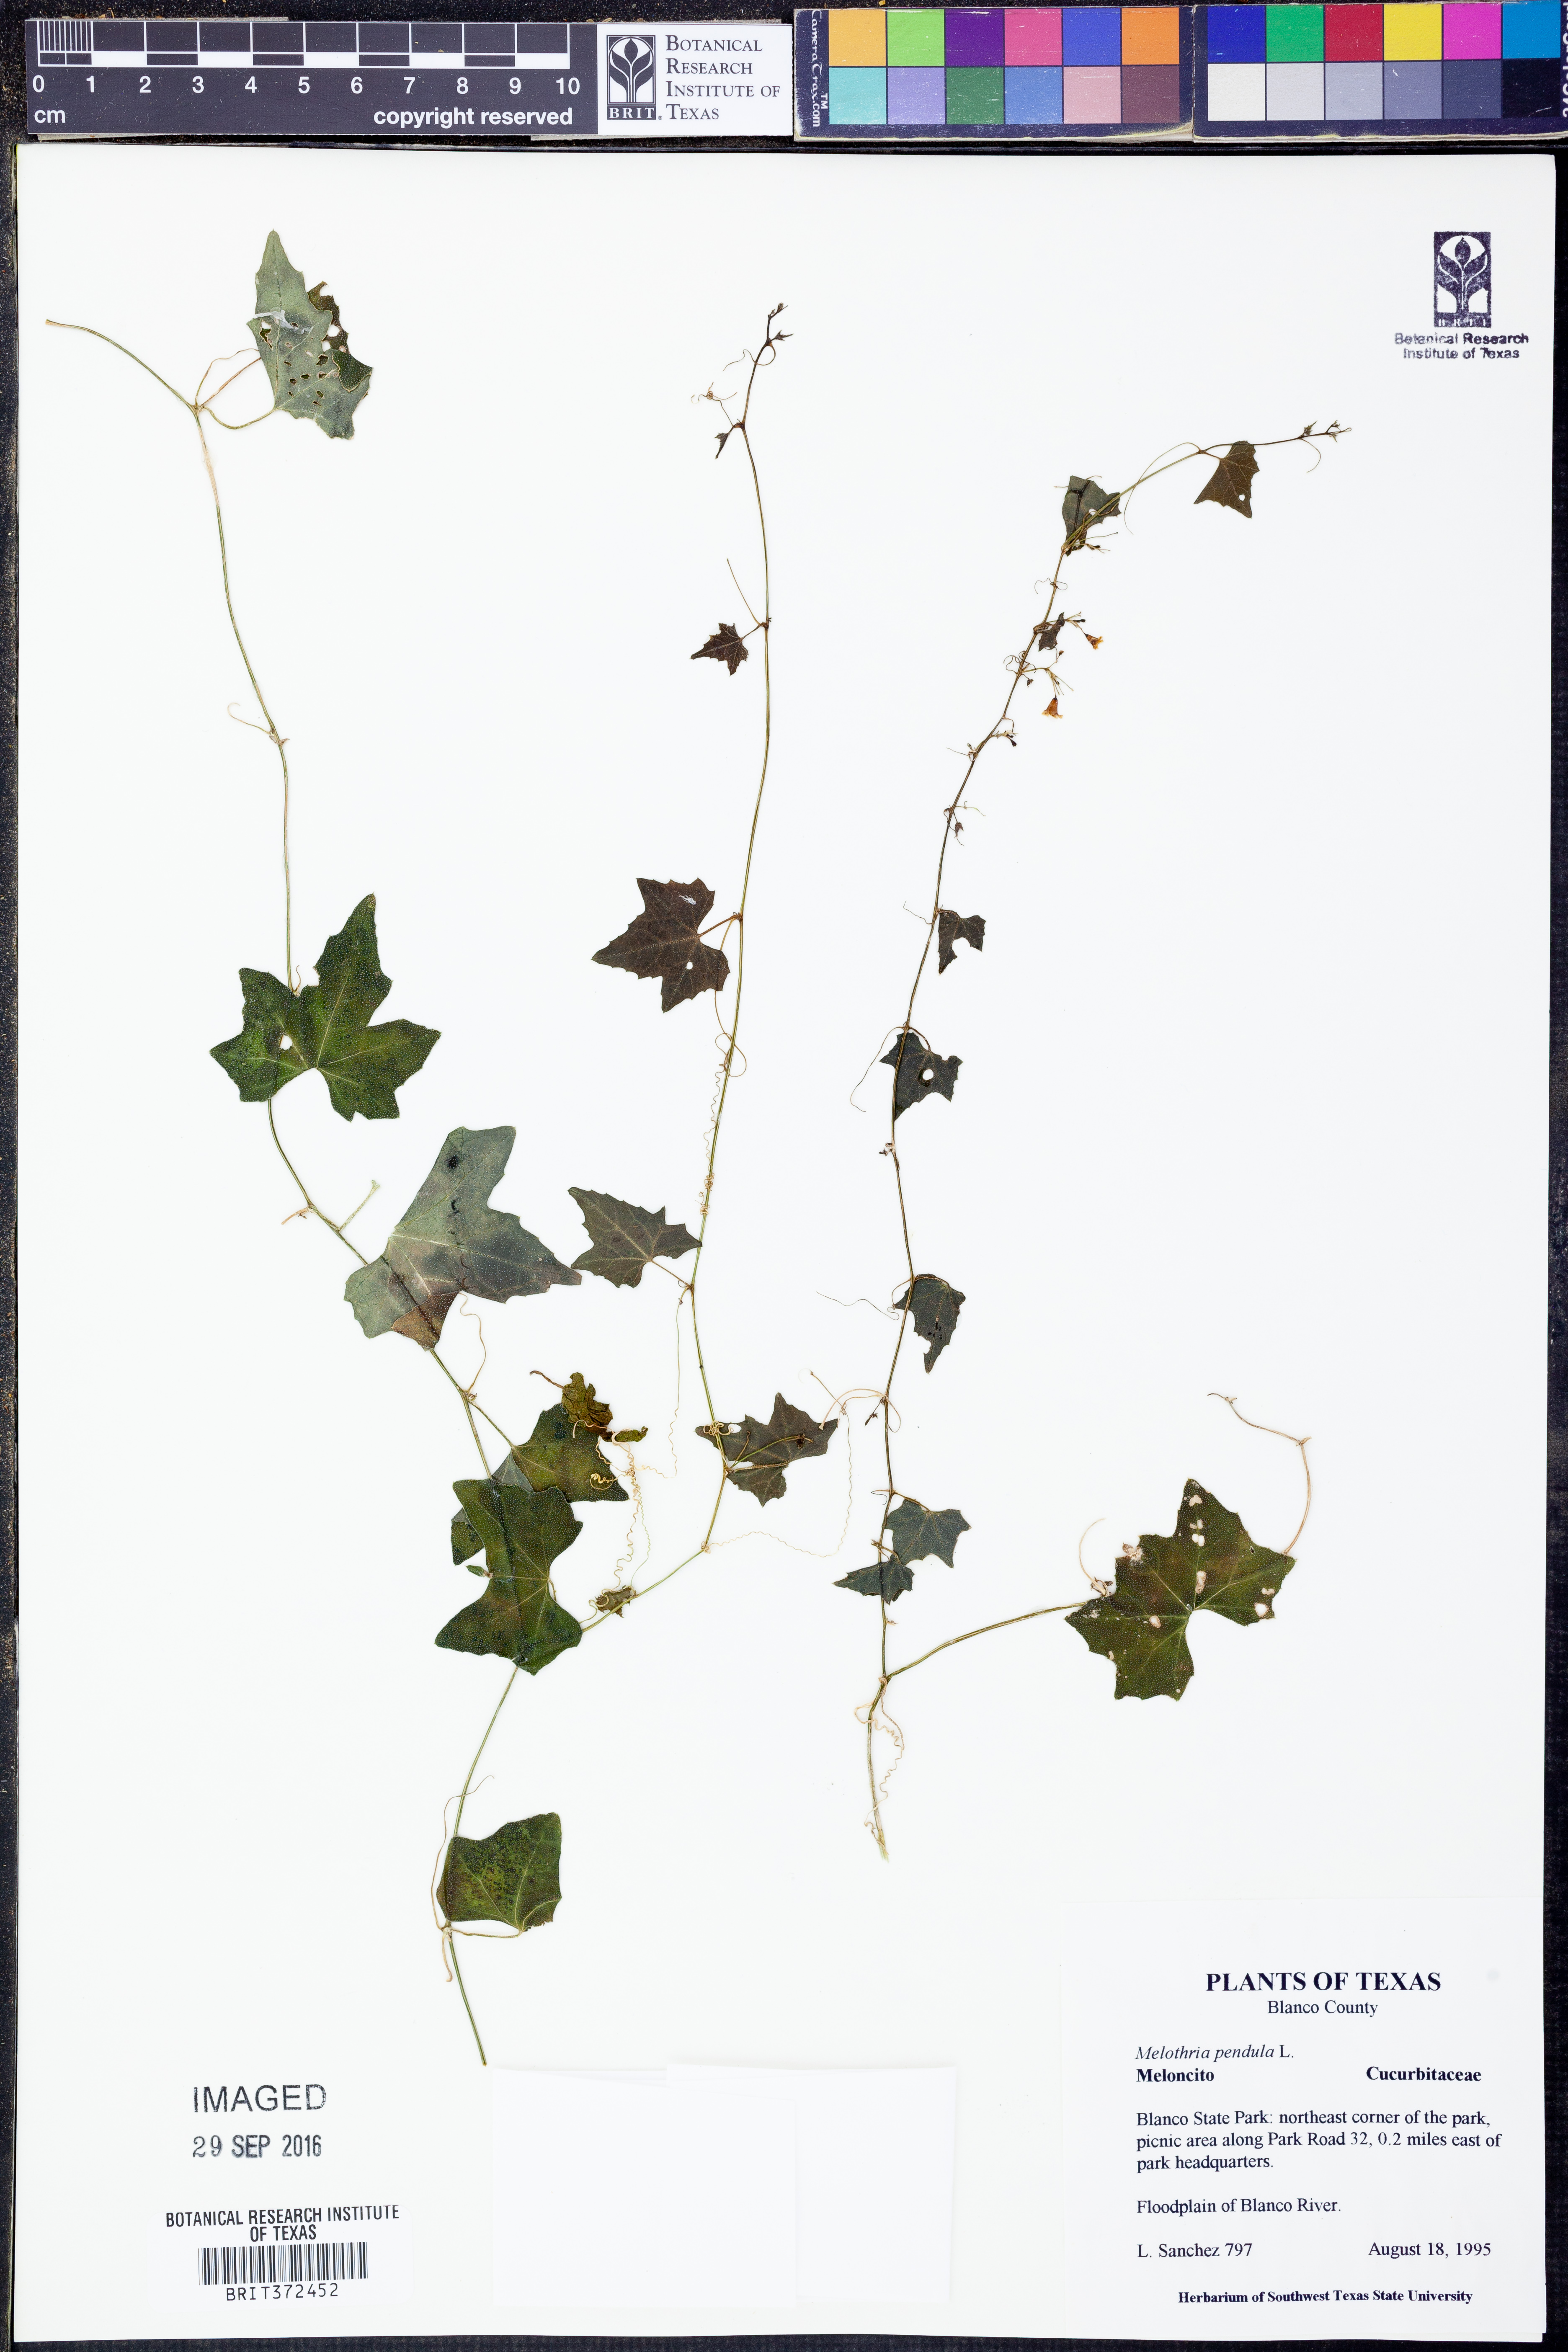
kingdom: Plantae
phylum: Tracheophyta
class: Magnoliopsida
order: Cucurbitales
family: Cucurbitaceae
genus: Melothria
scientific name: Melothria pendula
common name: Creeping-cucumber
